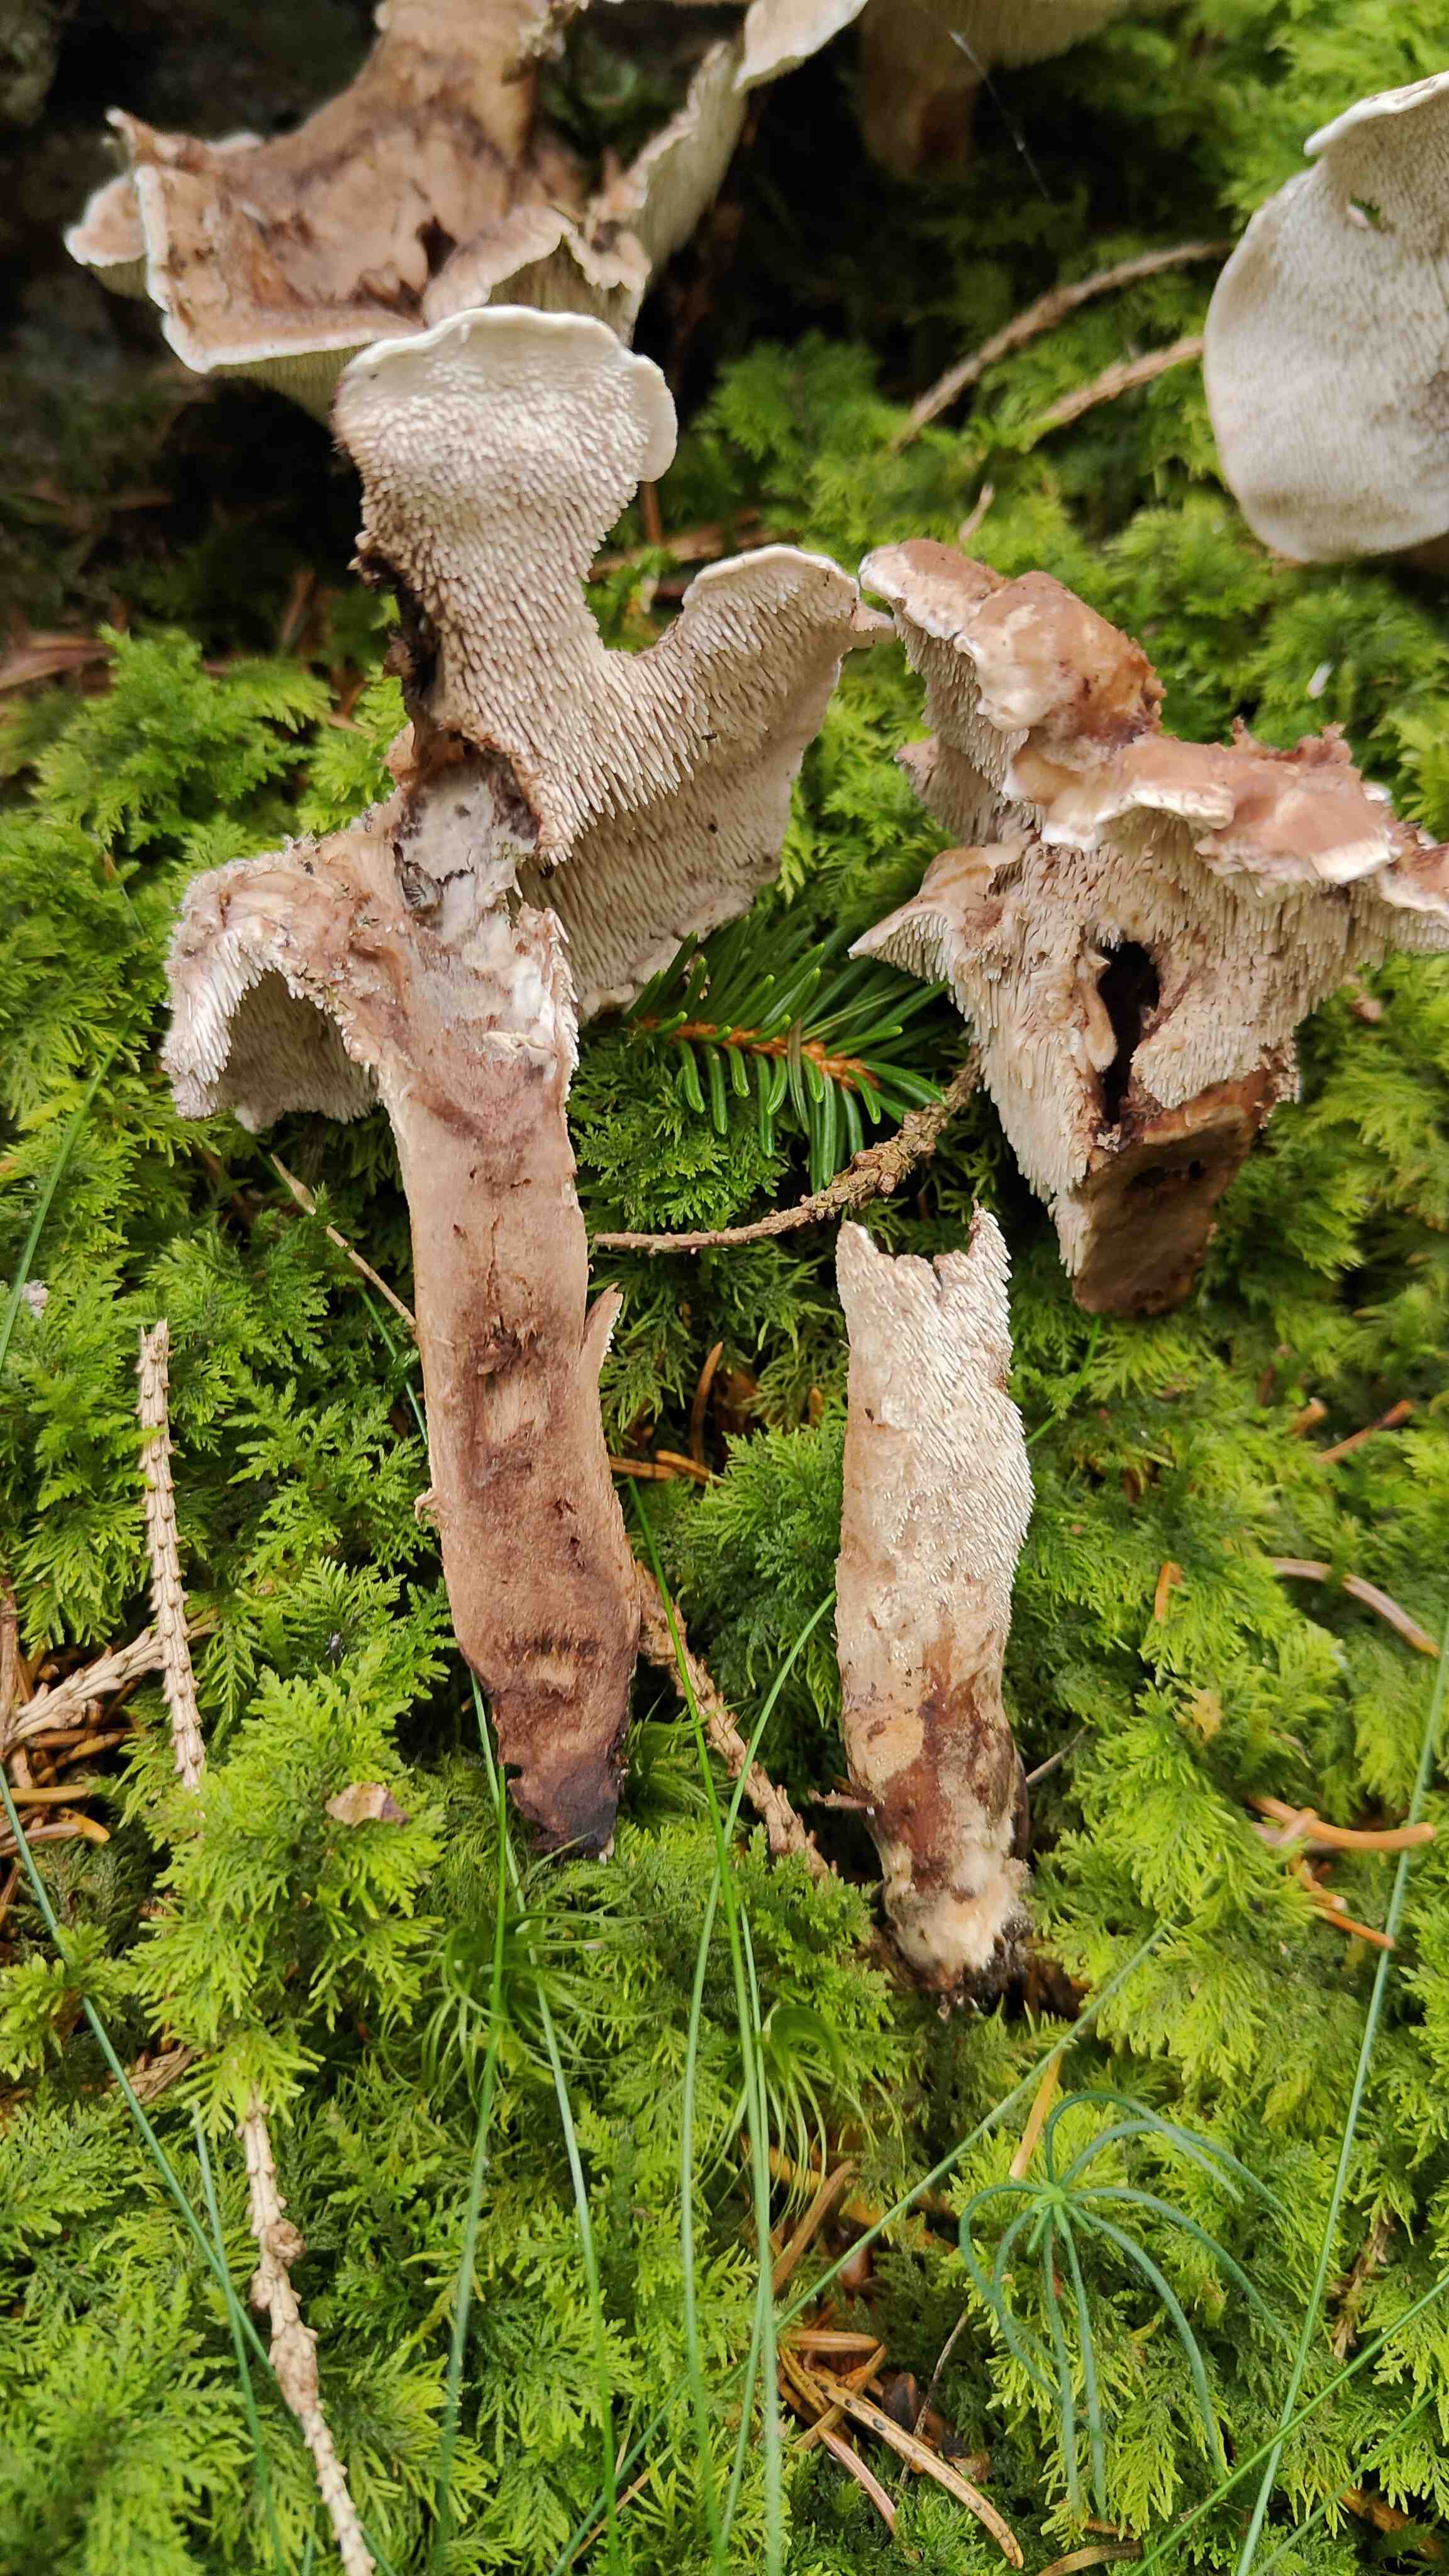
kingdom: Fungi
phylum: Basidiomycota
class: Agaricomycetes
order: Thelephorales
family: Thelephoraceae
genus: Phellodon
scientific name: Phellodon violascens
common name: violetbrun duftpigsvamp
